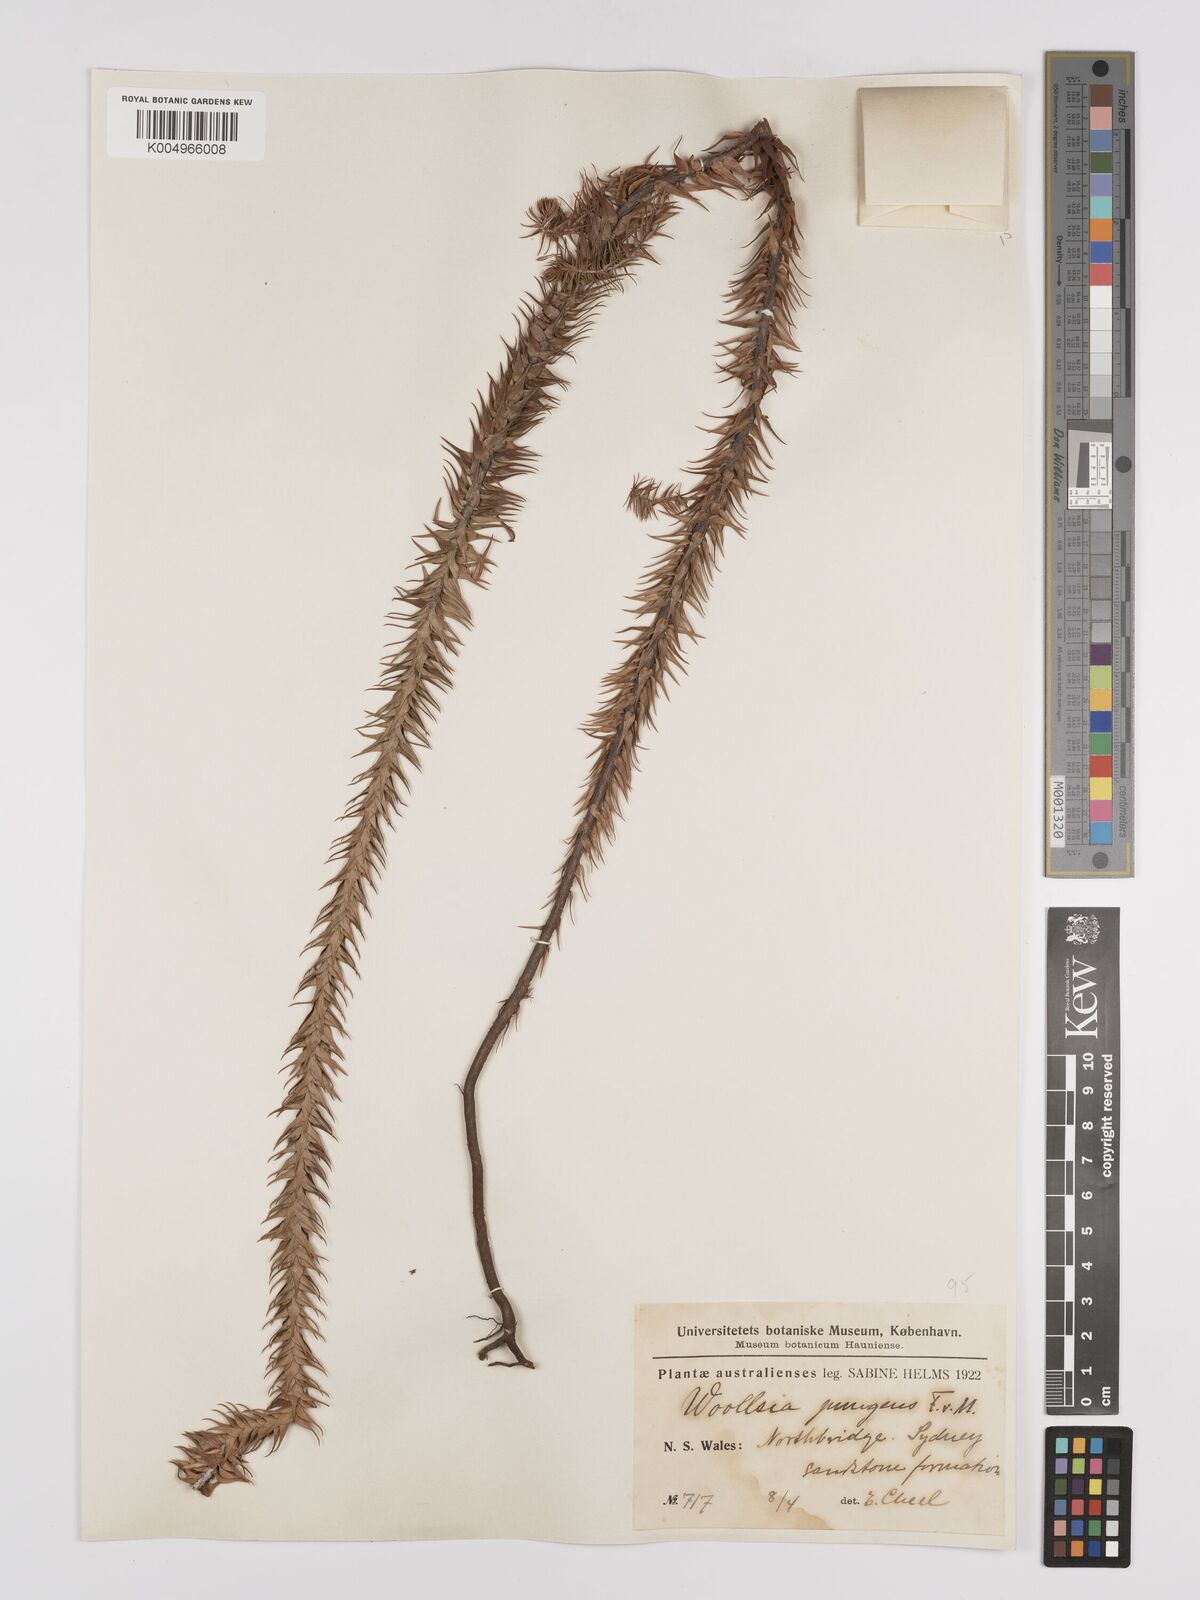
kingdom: Plantae
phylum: Tracheophyta
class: Magnoliopsida
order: Ericales
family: Ericaceae
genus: Woollsia
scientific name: Woollsia pungens
